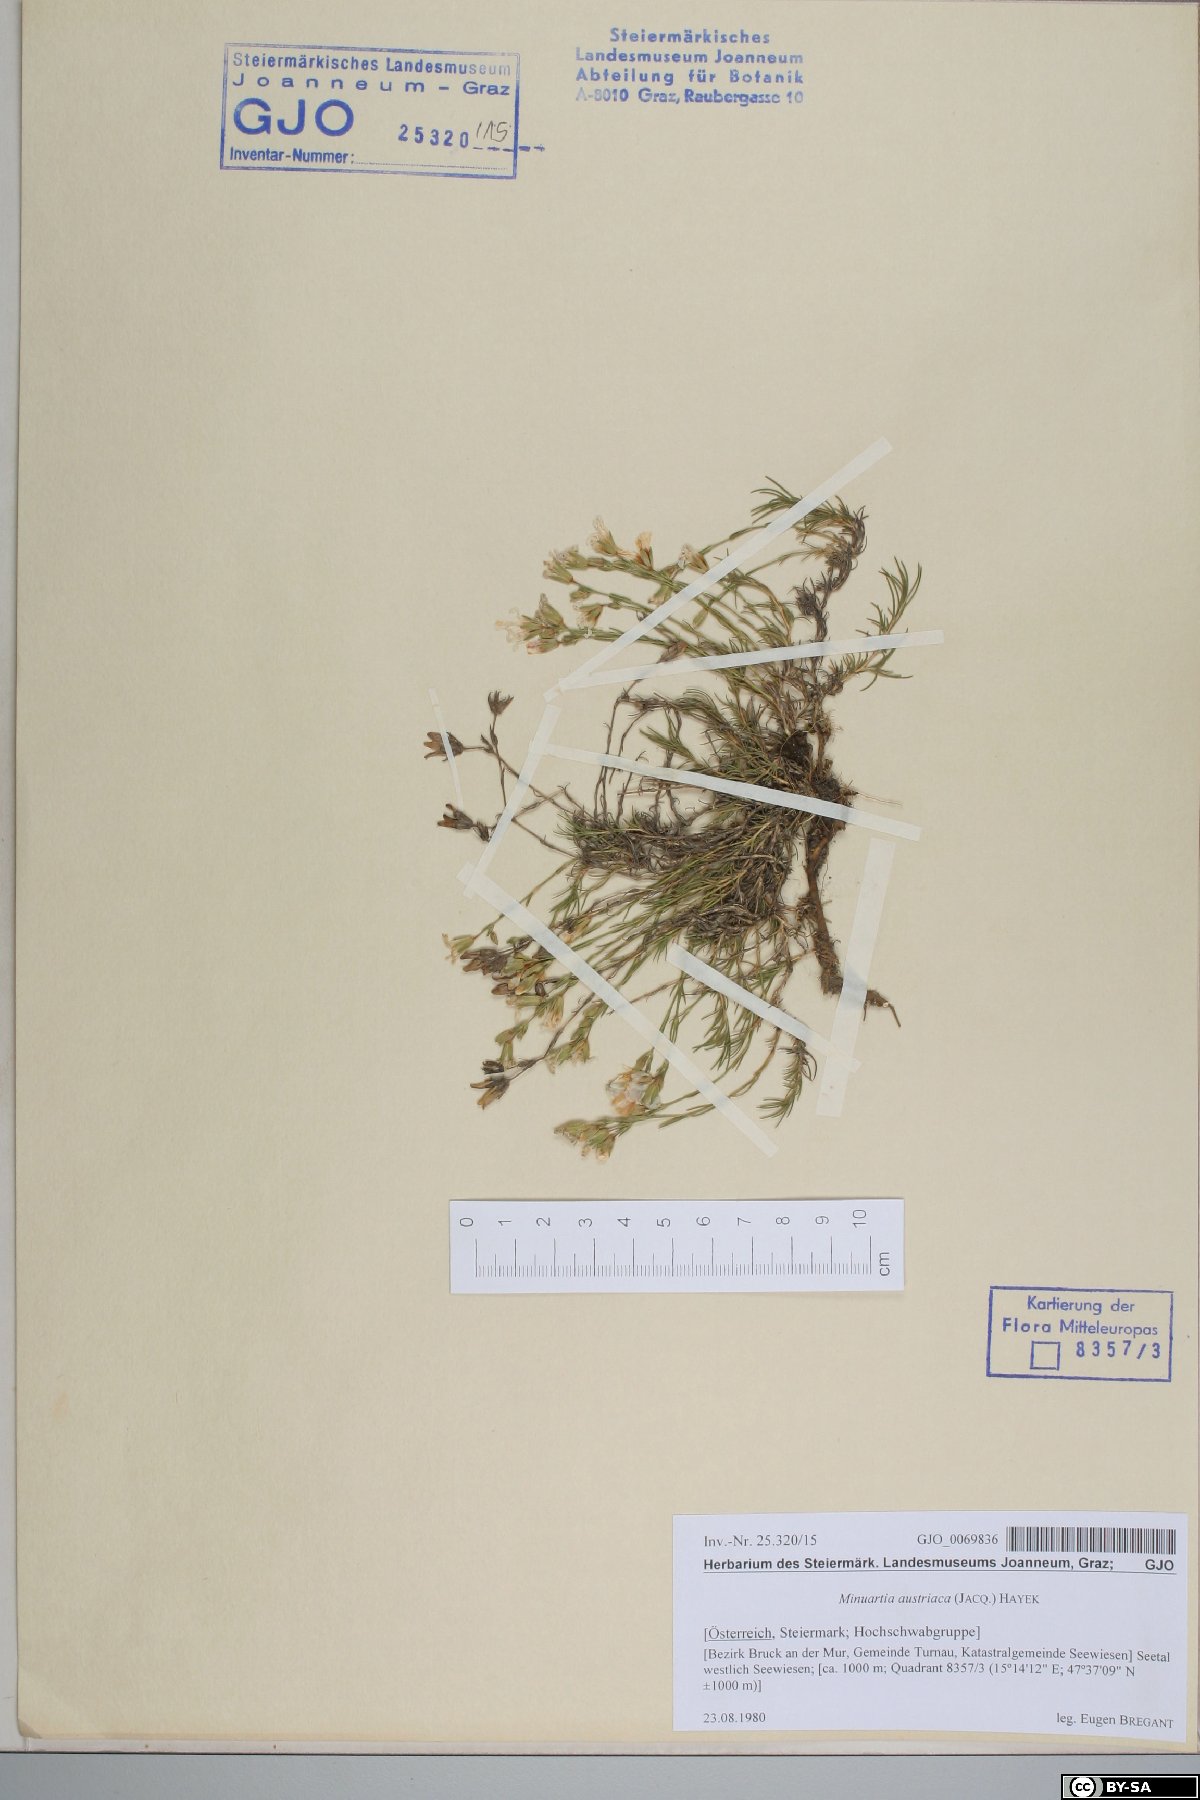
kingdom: Plantae
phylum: Tracheophyta
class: Magnoliopsida
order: Caryophyllales
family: Caryophyllaceae
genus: Sabulina
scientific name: Sabulina austriaca
